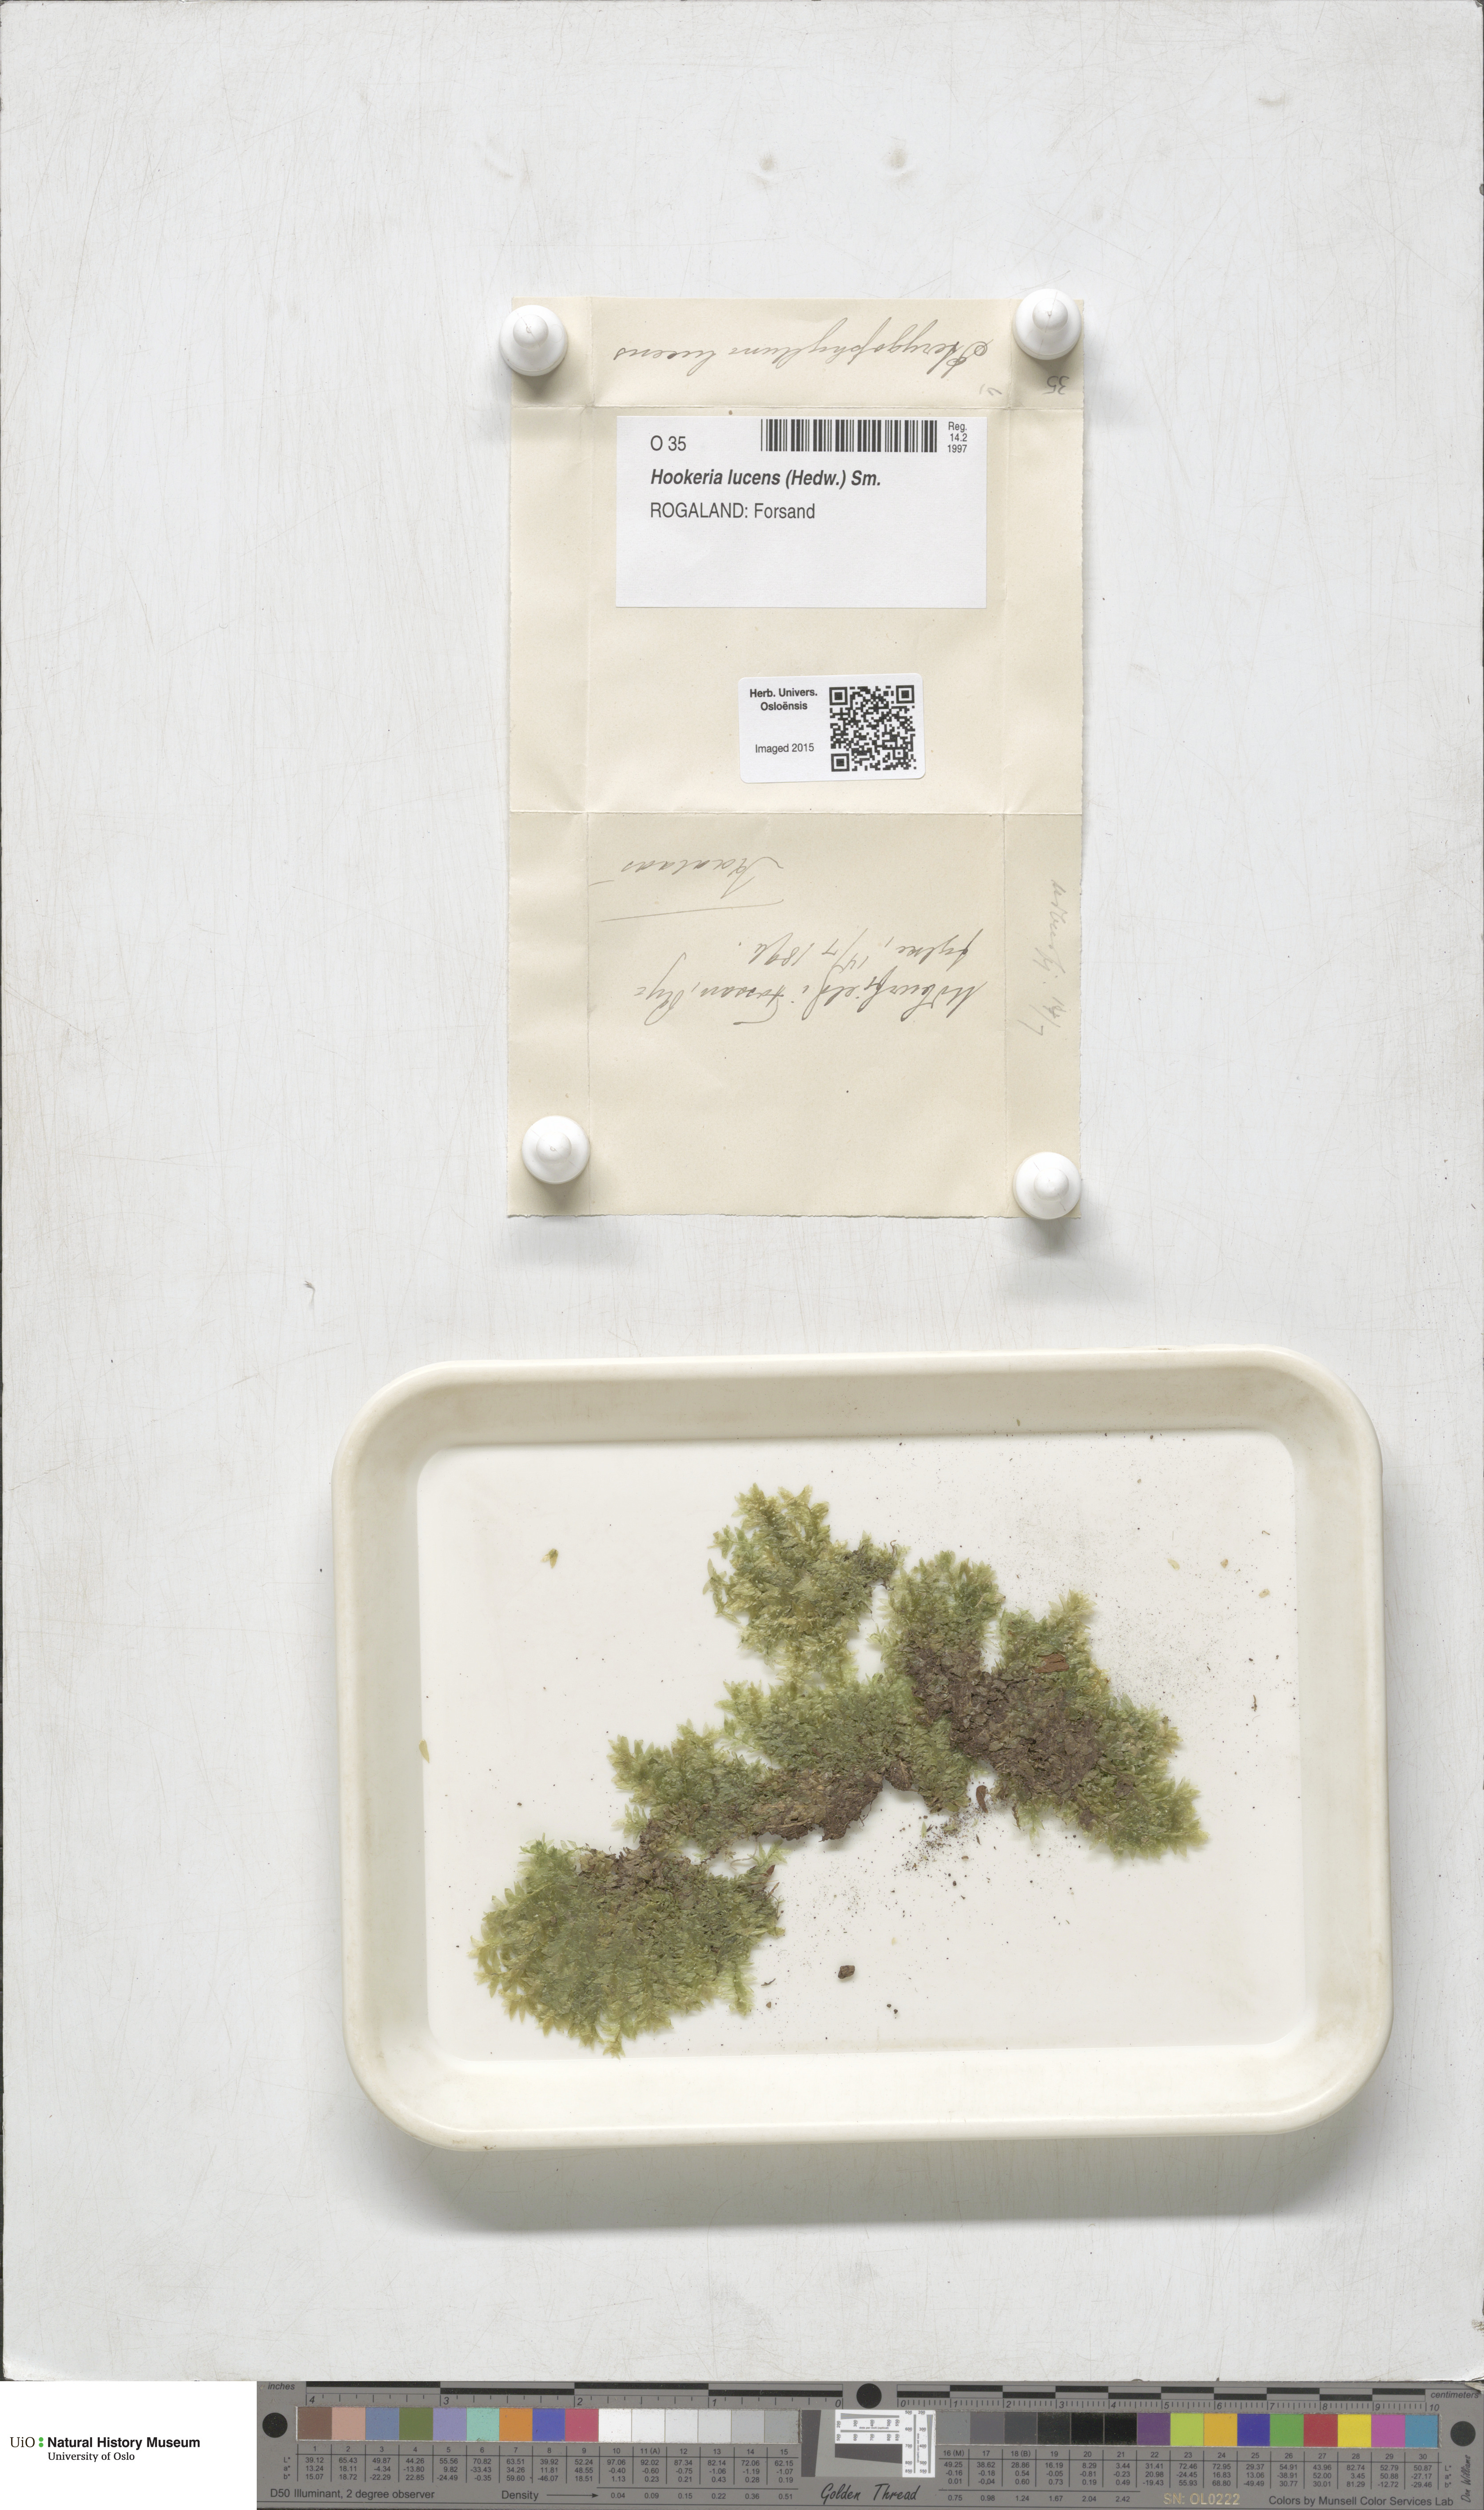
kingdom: Plantae
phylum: Bryophyta
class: Bryopsida
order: Hookeriales
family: Hookeriaceae
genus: Hookeria
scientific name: Hookeria lucens
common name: Shining hookeria
